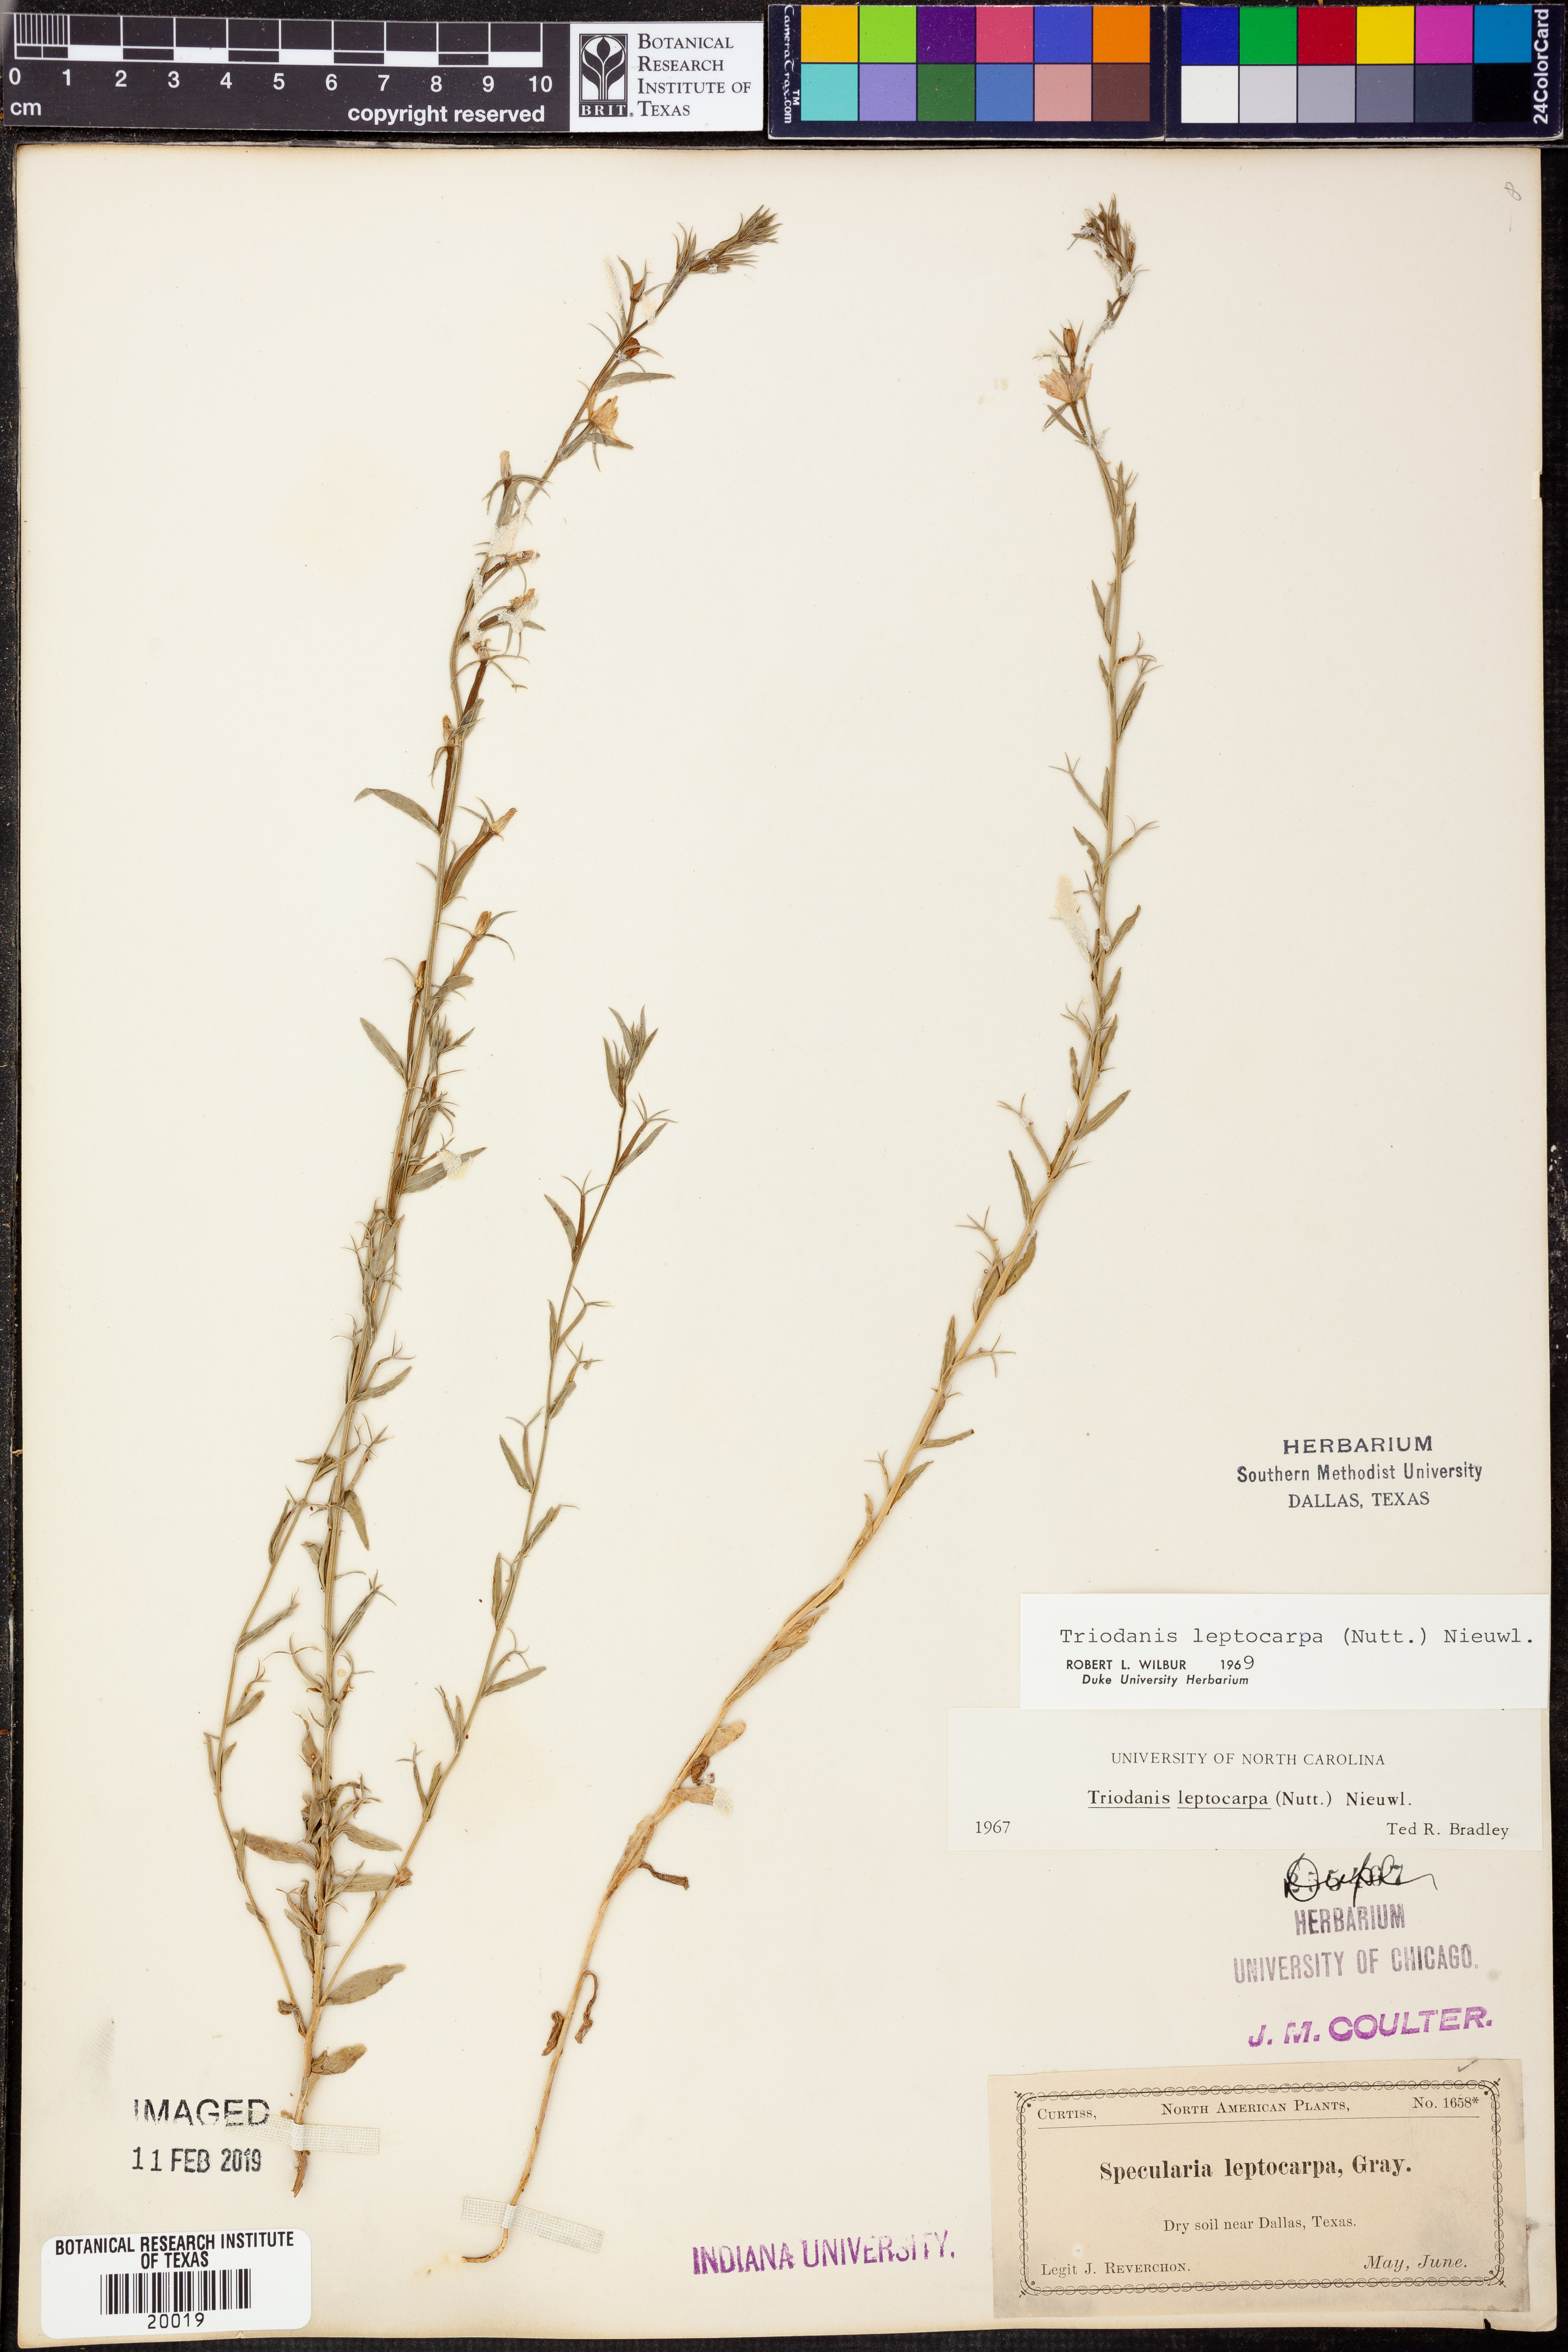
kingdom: Plantae
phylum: Tracheophyta
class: Magnoliopsida
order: Asterales
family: Campanulaceae
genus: Triodanis
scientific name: Triodanis leptocarpa
